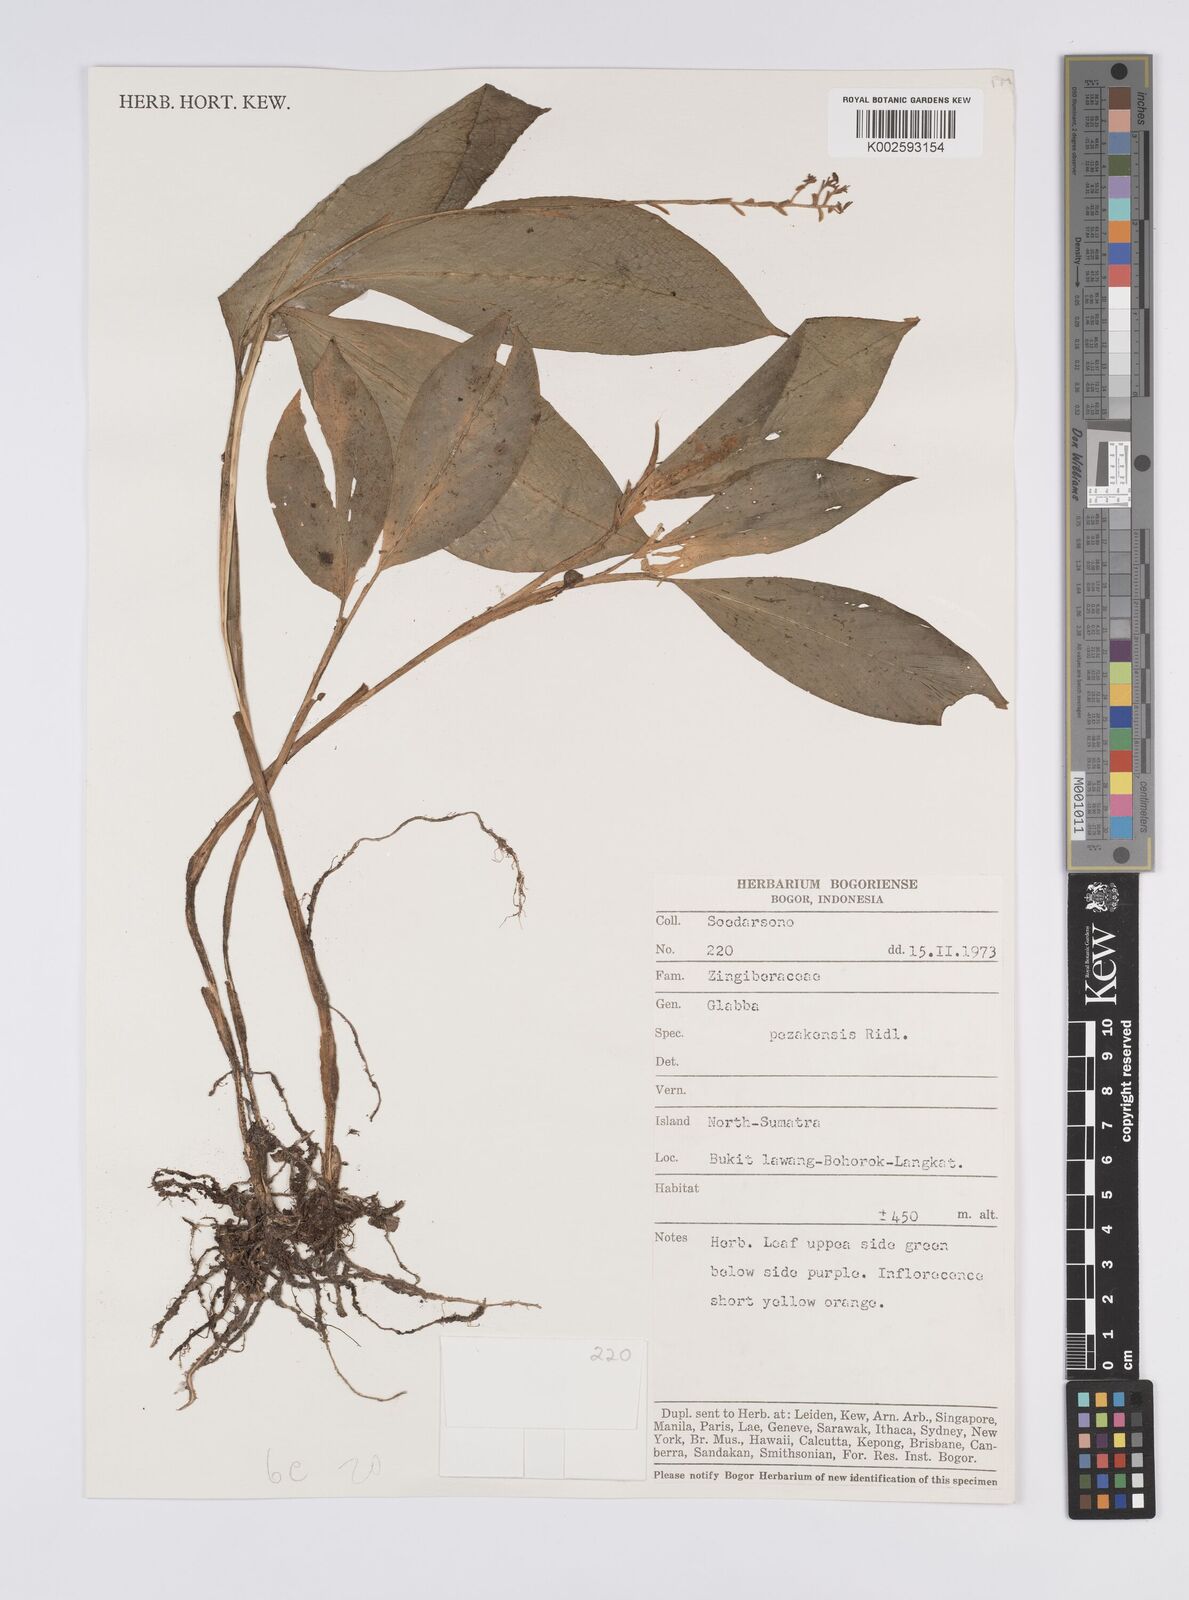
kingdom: Plantae
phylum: Tracheophyta
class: Liliopsida
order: Zingiberales
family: Zingiberaceae
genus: Globba
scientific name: Globba variabilis
